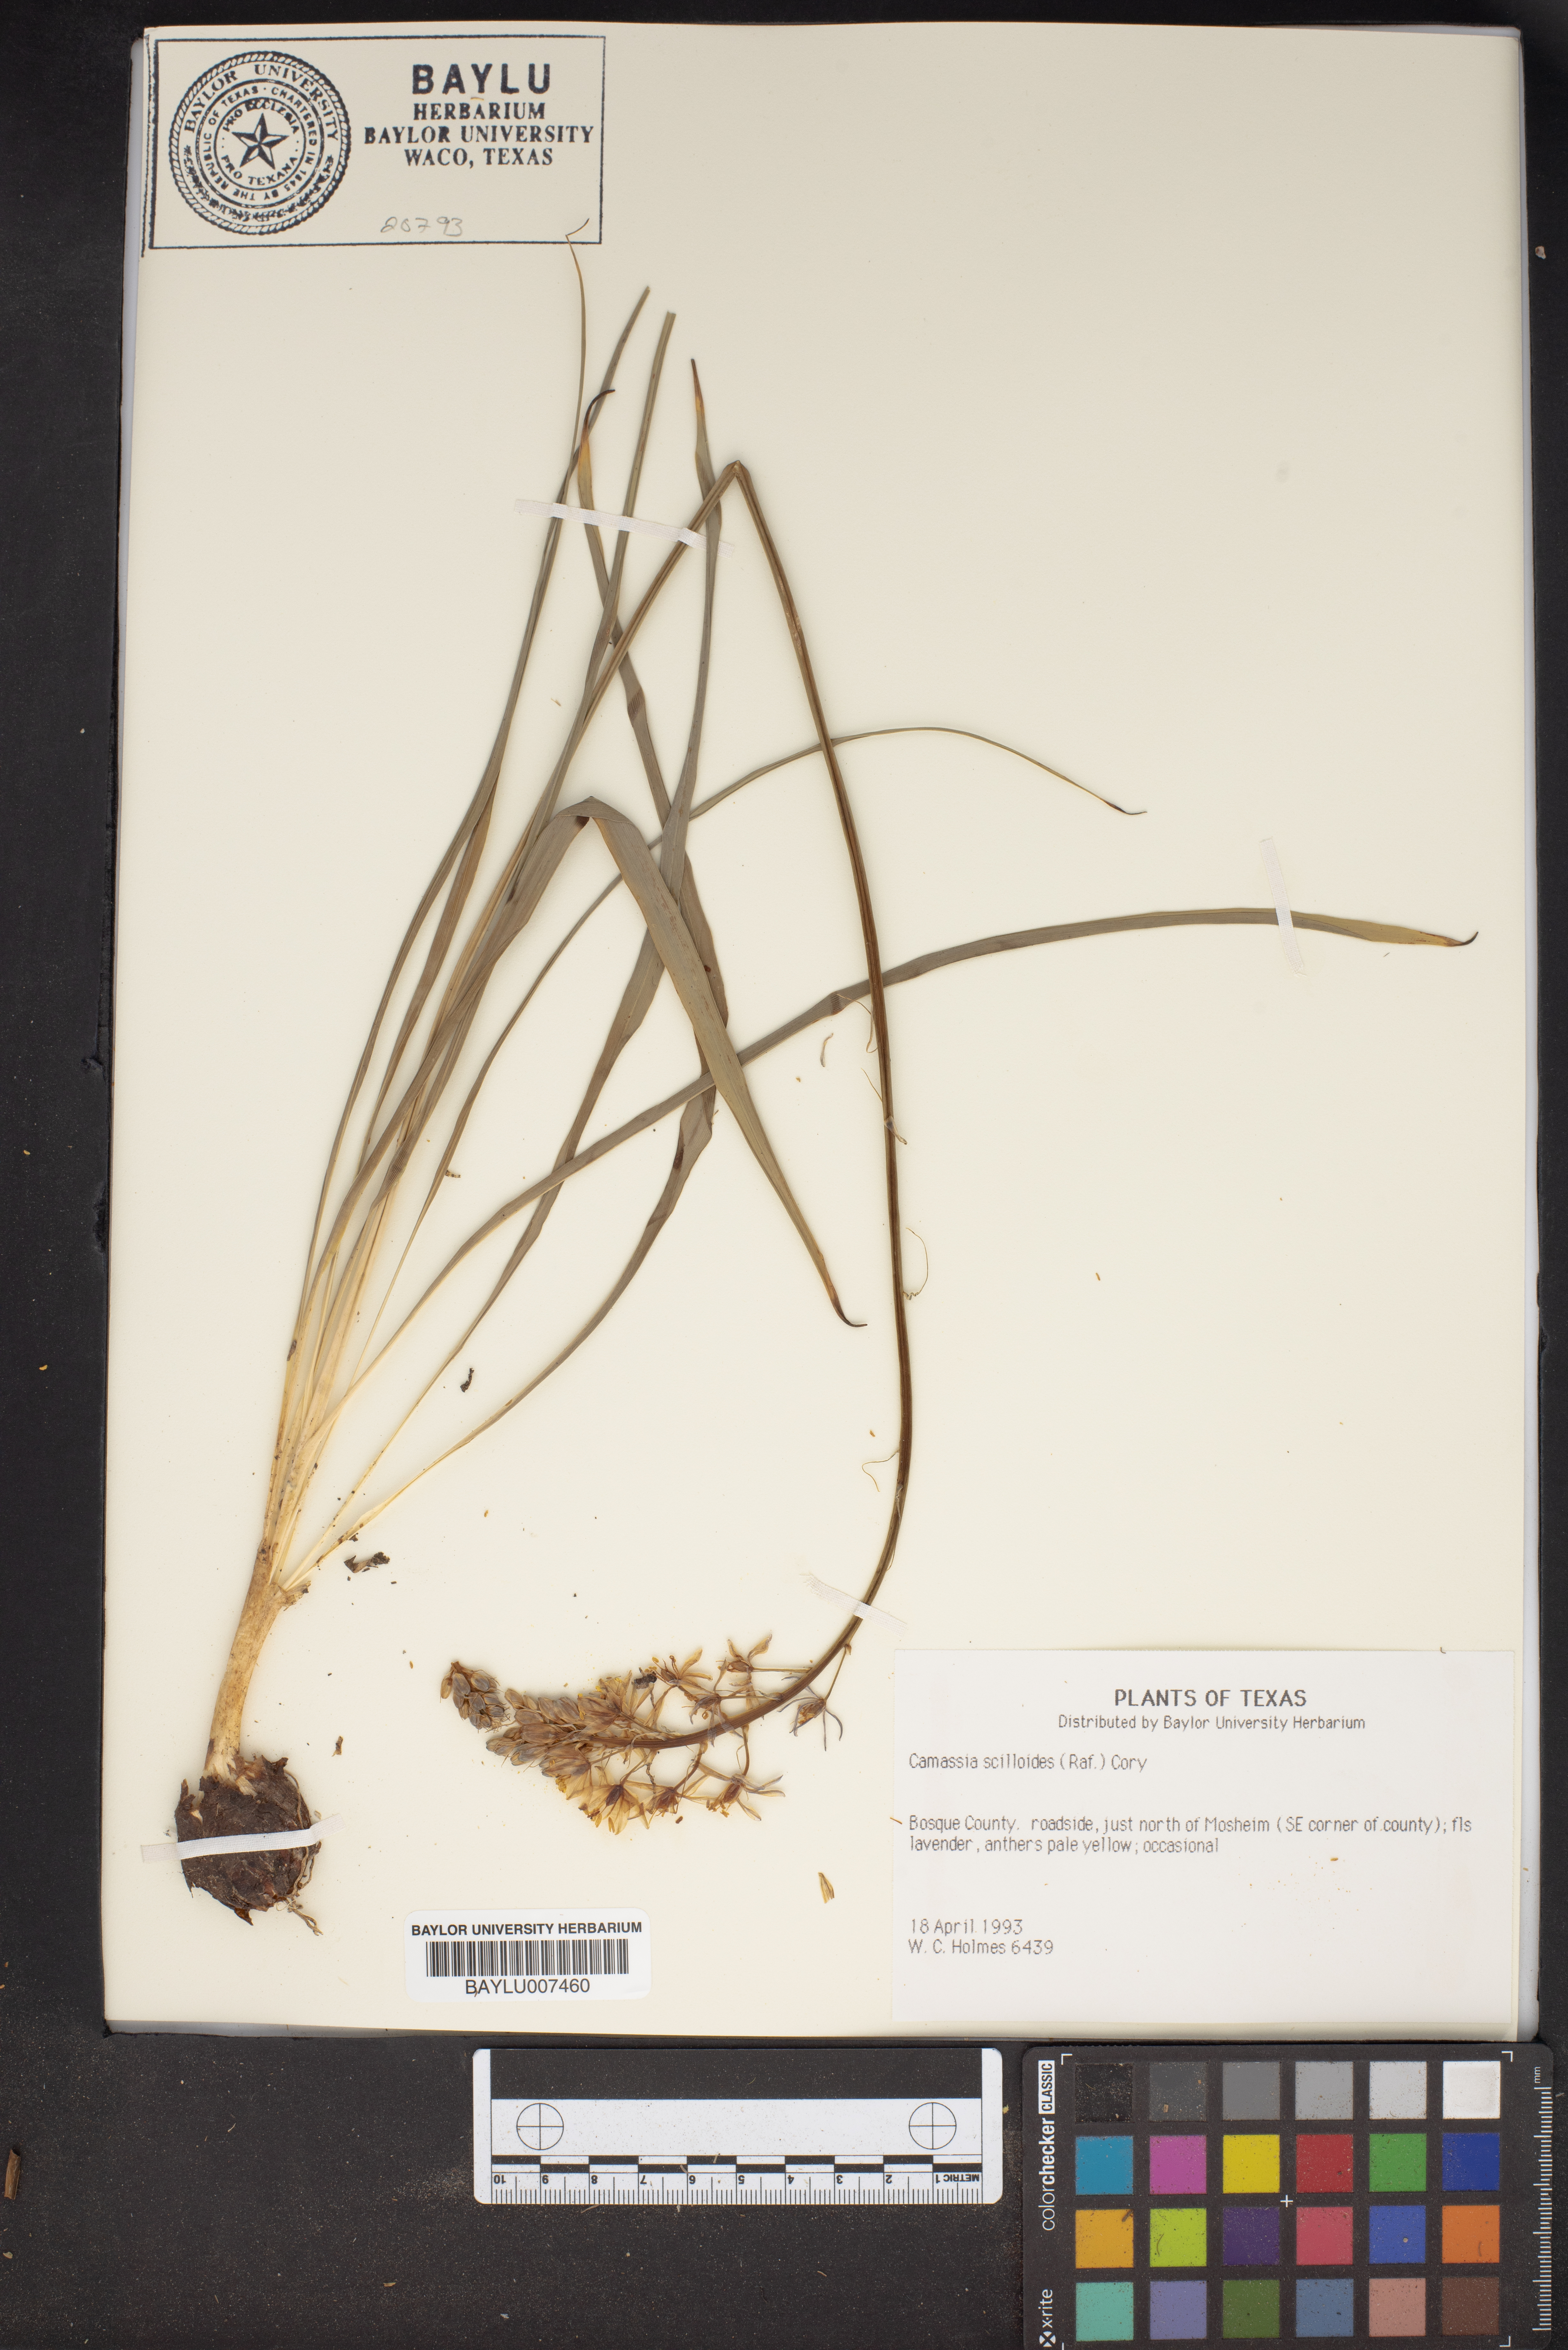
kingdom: Plantae
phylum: Tracheophyta
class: Liliopsida
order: Asparagales
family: Asparagaceae
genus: Camassia
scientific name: Camassia scilloides
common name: Wild hyacinth
